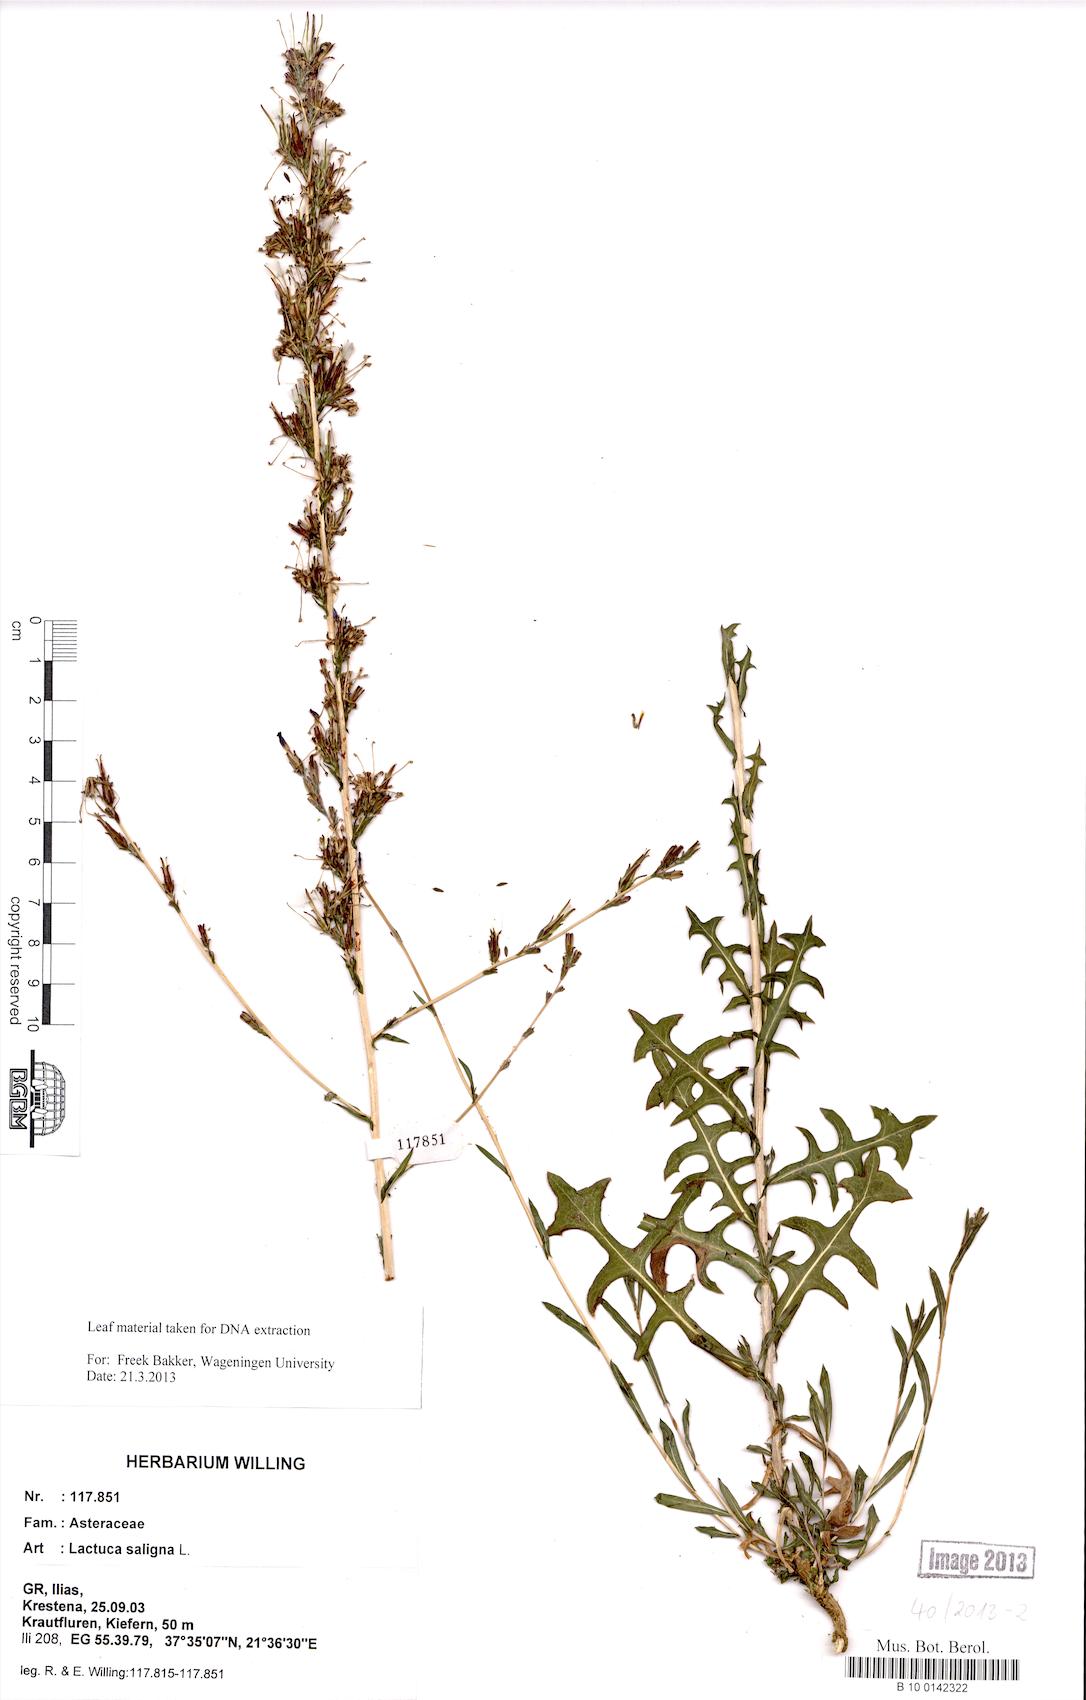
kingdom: Plantae
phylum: Tracheophyta
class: Magnoliopsida
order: Asterales
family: Asteraceae
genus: Lactuca
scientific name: Lactuca saligna
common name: Wild lettuce
